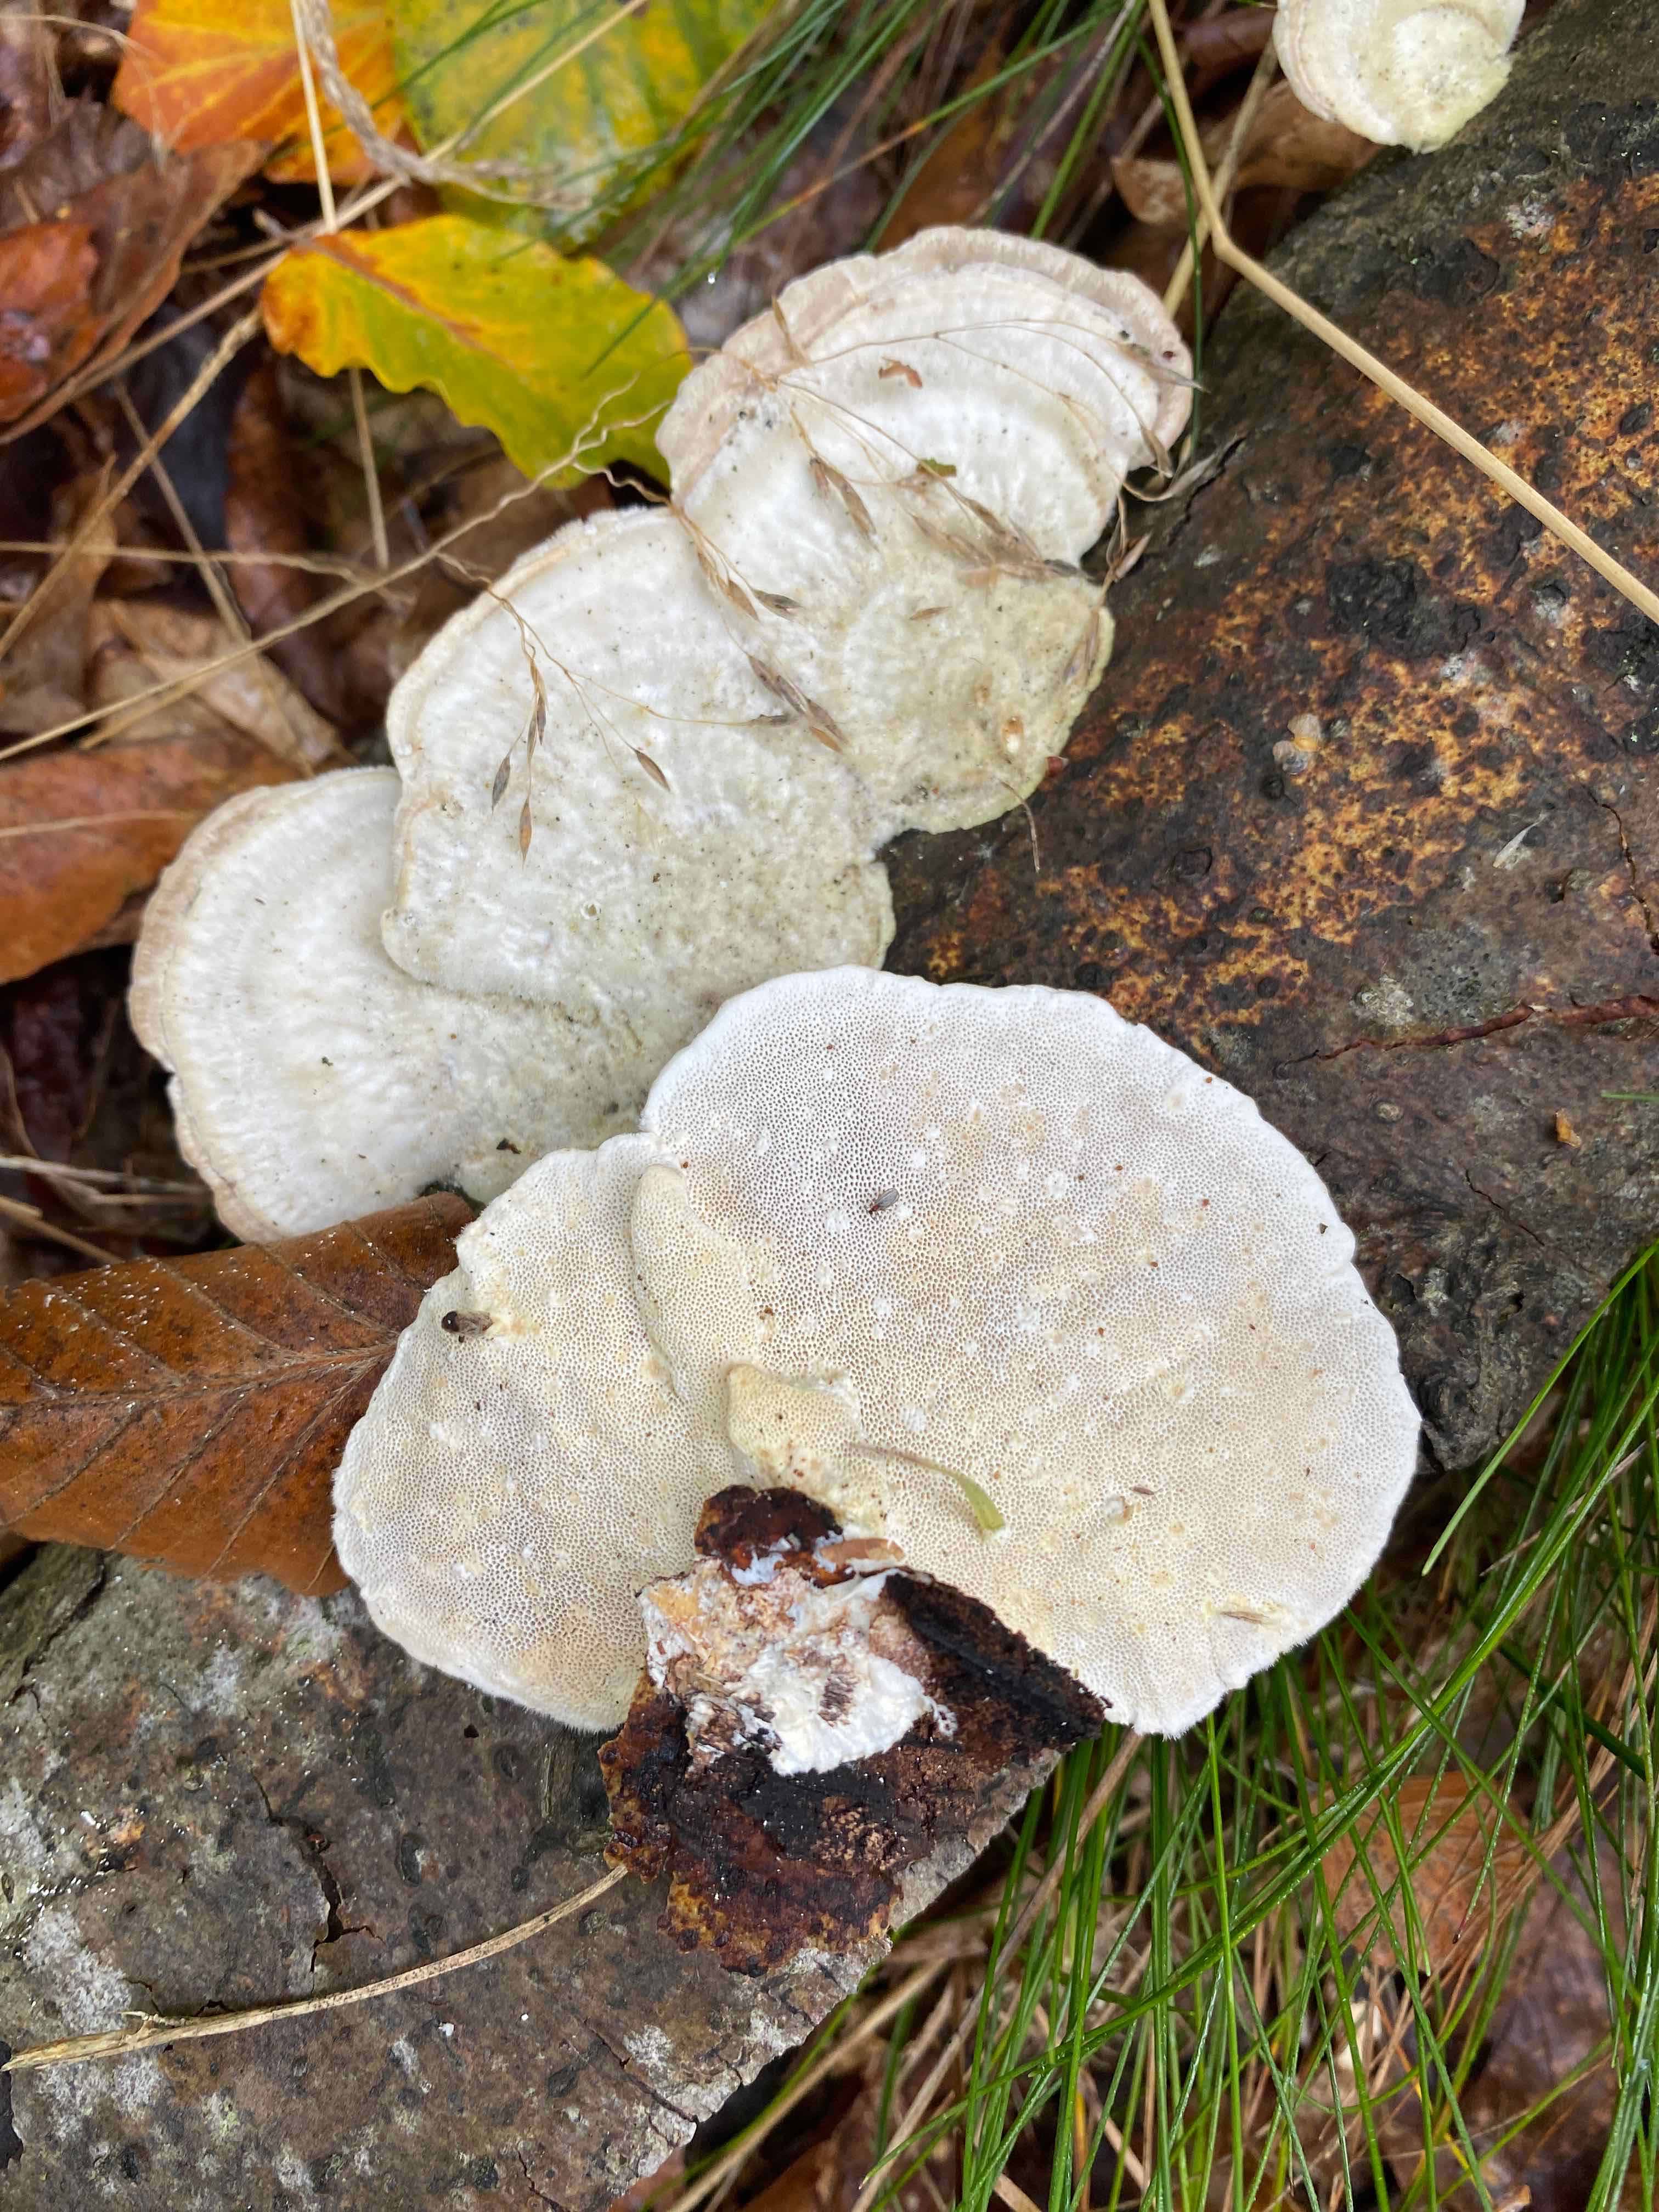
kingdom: Fungi
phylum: Basidiomycota
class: Agaricomycetes
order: Polyporales
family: Polyporaceae
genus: Trametes
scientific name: Trametes hirsuta
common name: håret læderporesvamp
